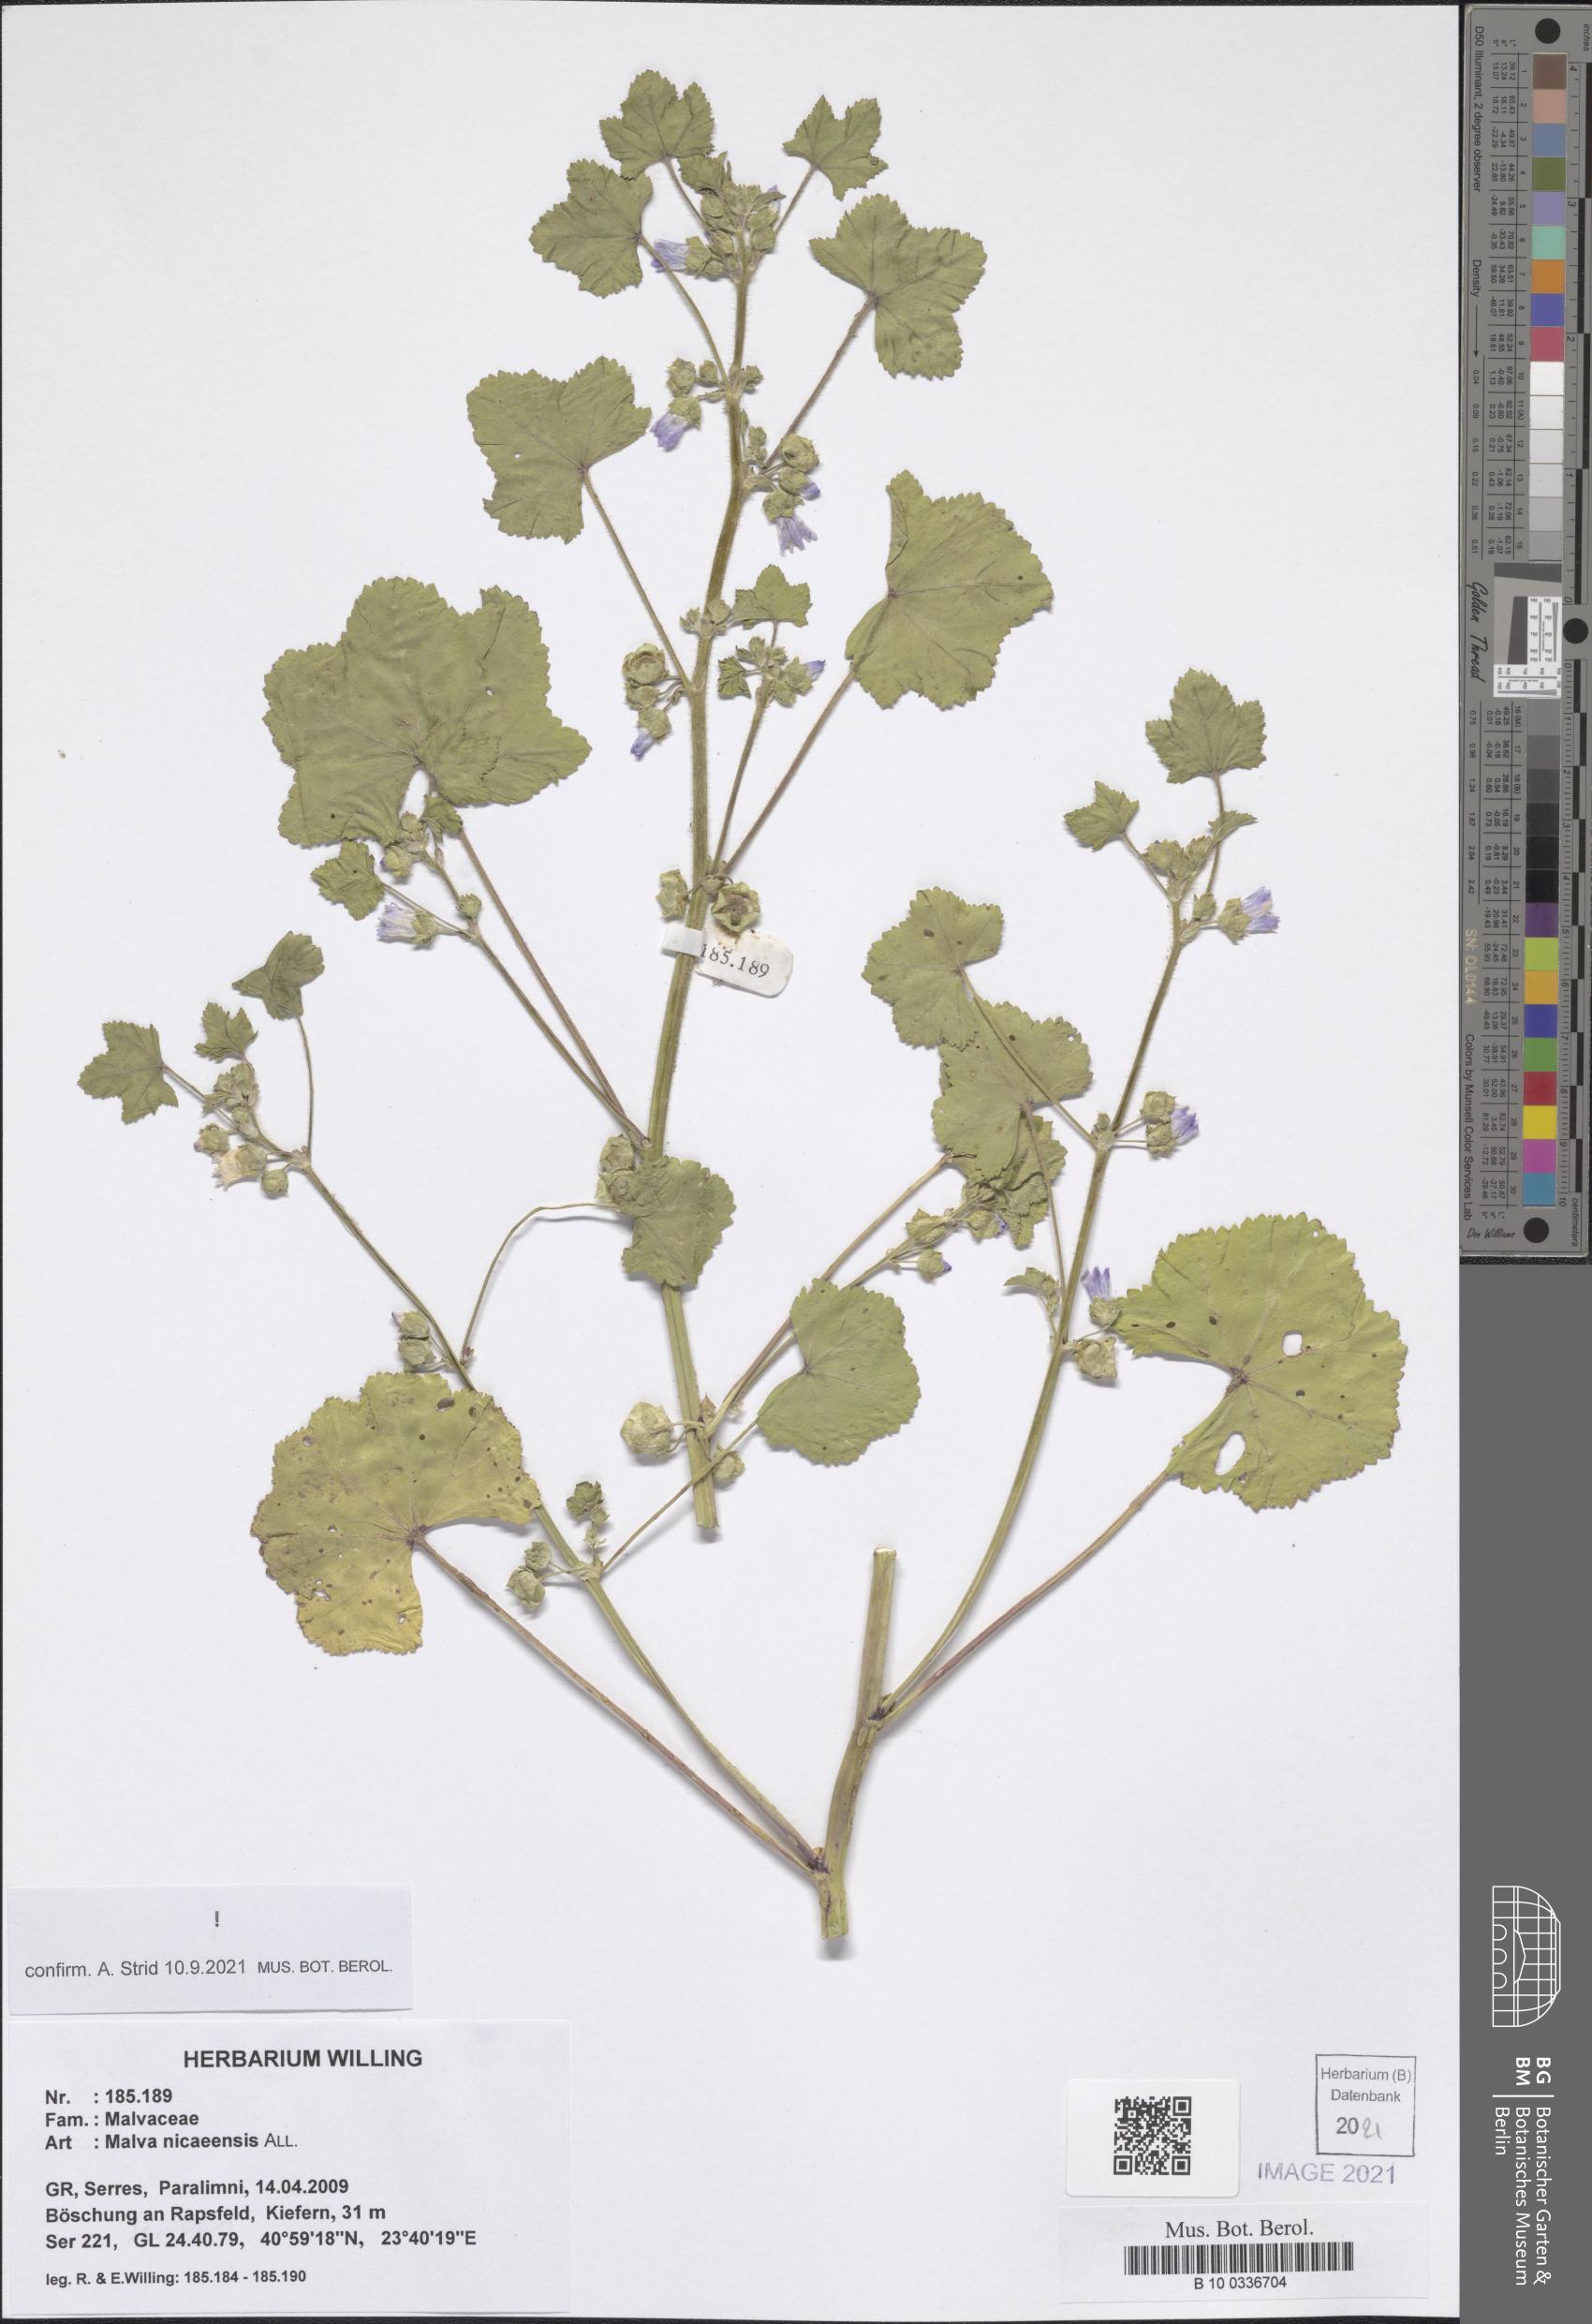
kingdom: Plantae
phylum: Tracheophyta
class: Magnoliopsida
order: Malvales
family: Malvaceae
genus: Malva
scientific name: Malva nicaeensis
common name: French mallow
